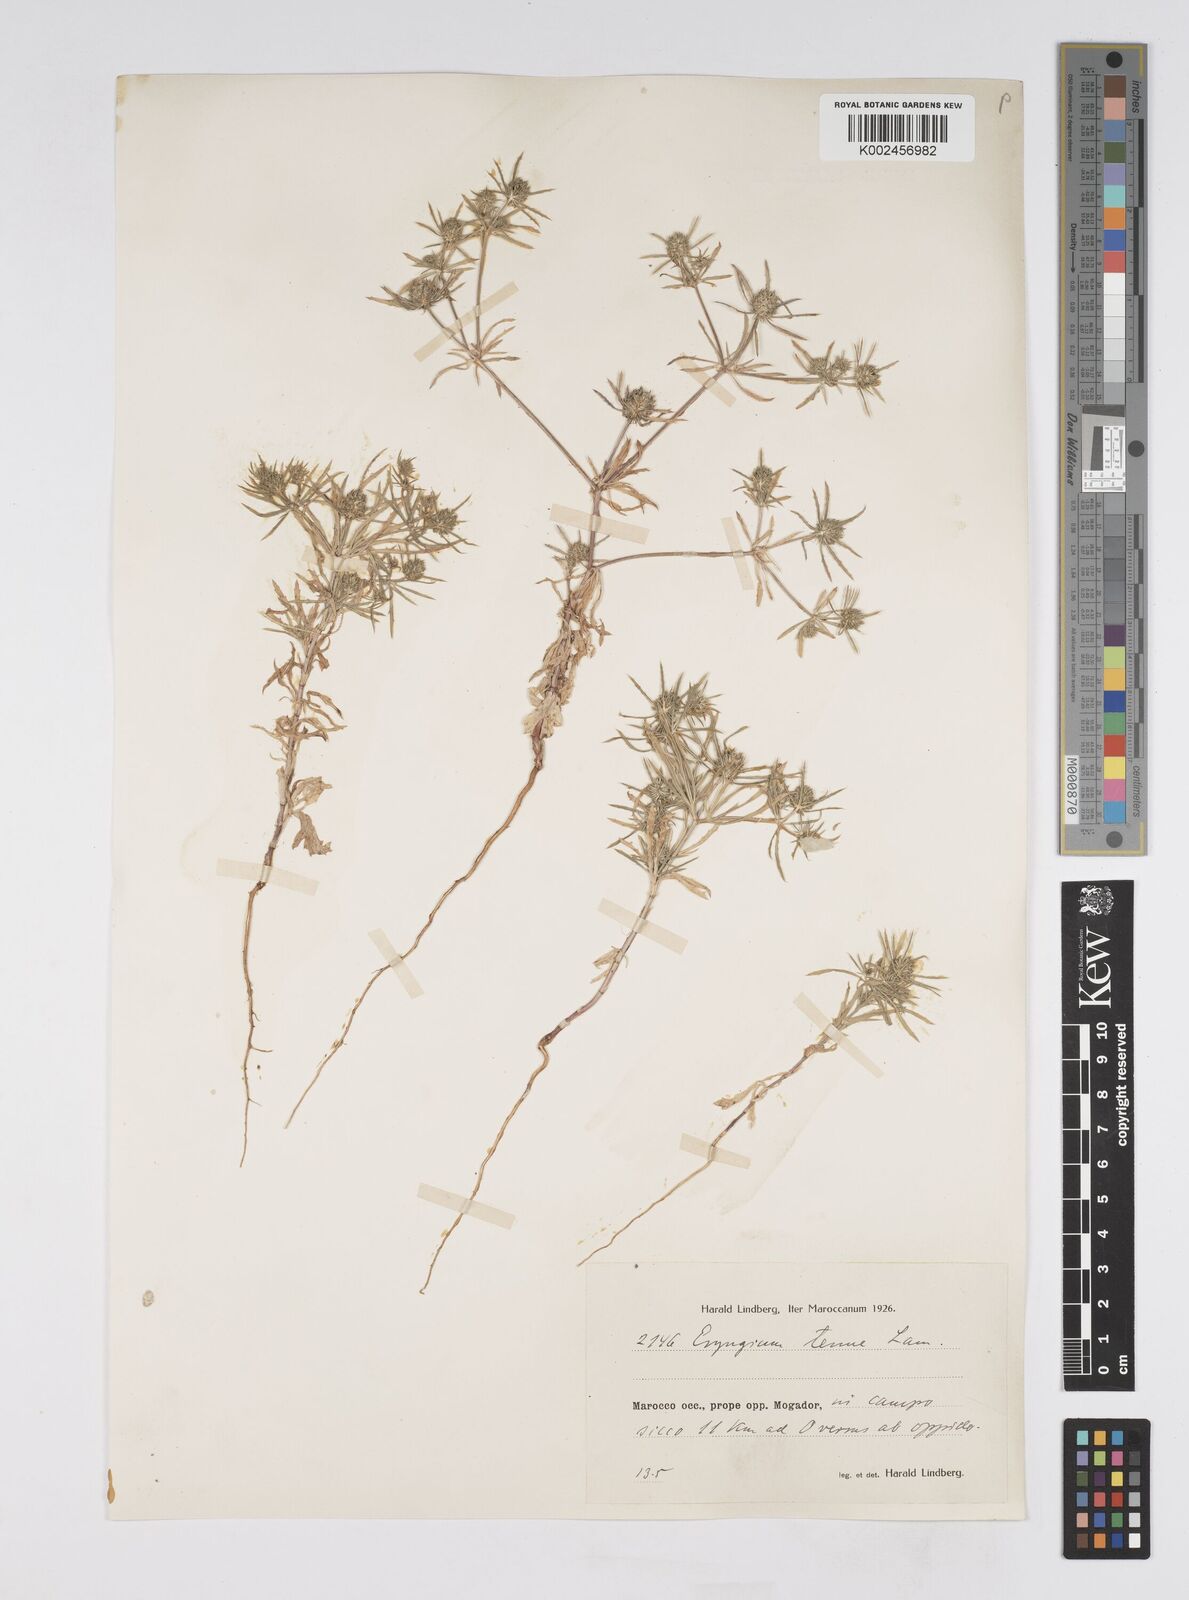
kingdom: Plantae
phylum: Tracheophyta
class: Magnoliopsida
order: Apiales
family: Apiaceae
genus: Eryngium
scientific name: Eryngium
